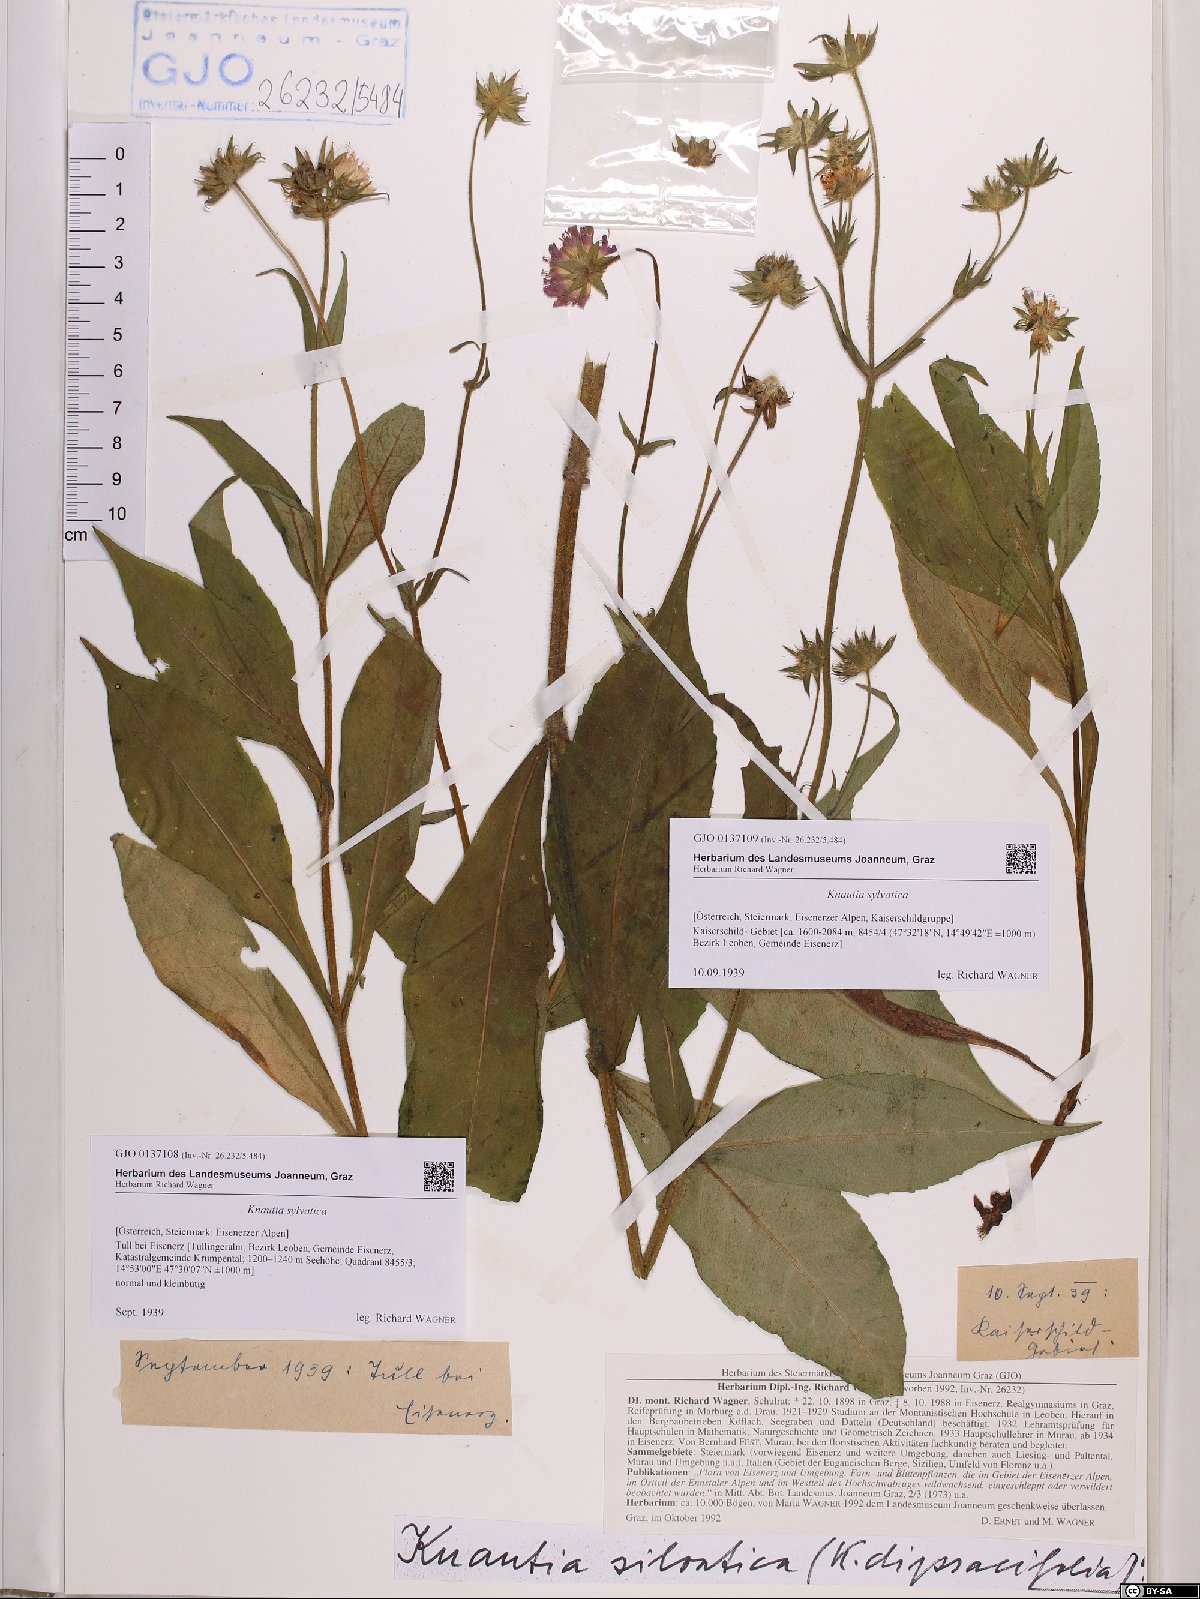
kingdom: Plantae
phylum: Tracheophyta
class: Magnoliopsida
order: Dipsacales
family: Caprifoliaceae
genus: Knautia
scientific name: Knautia drymeia
